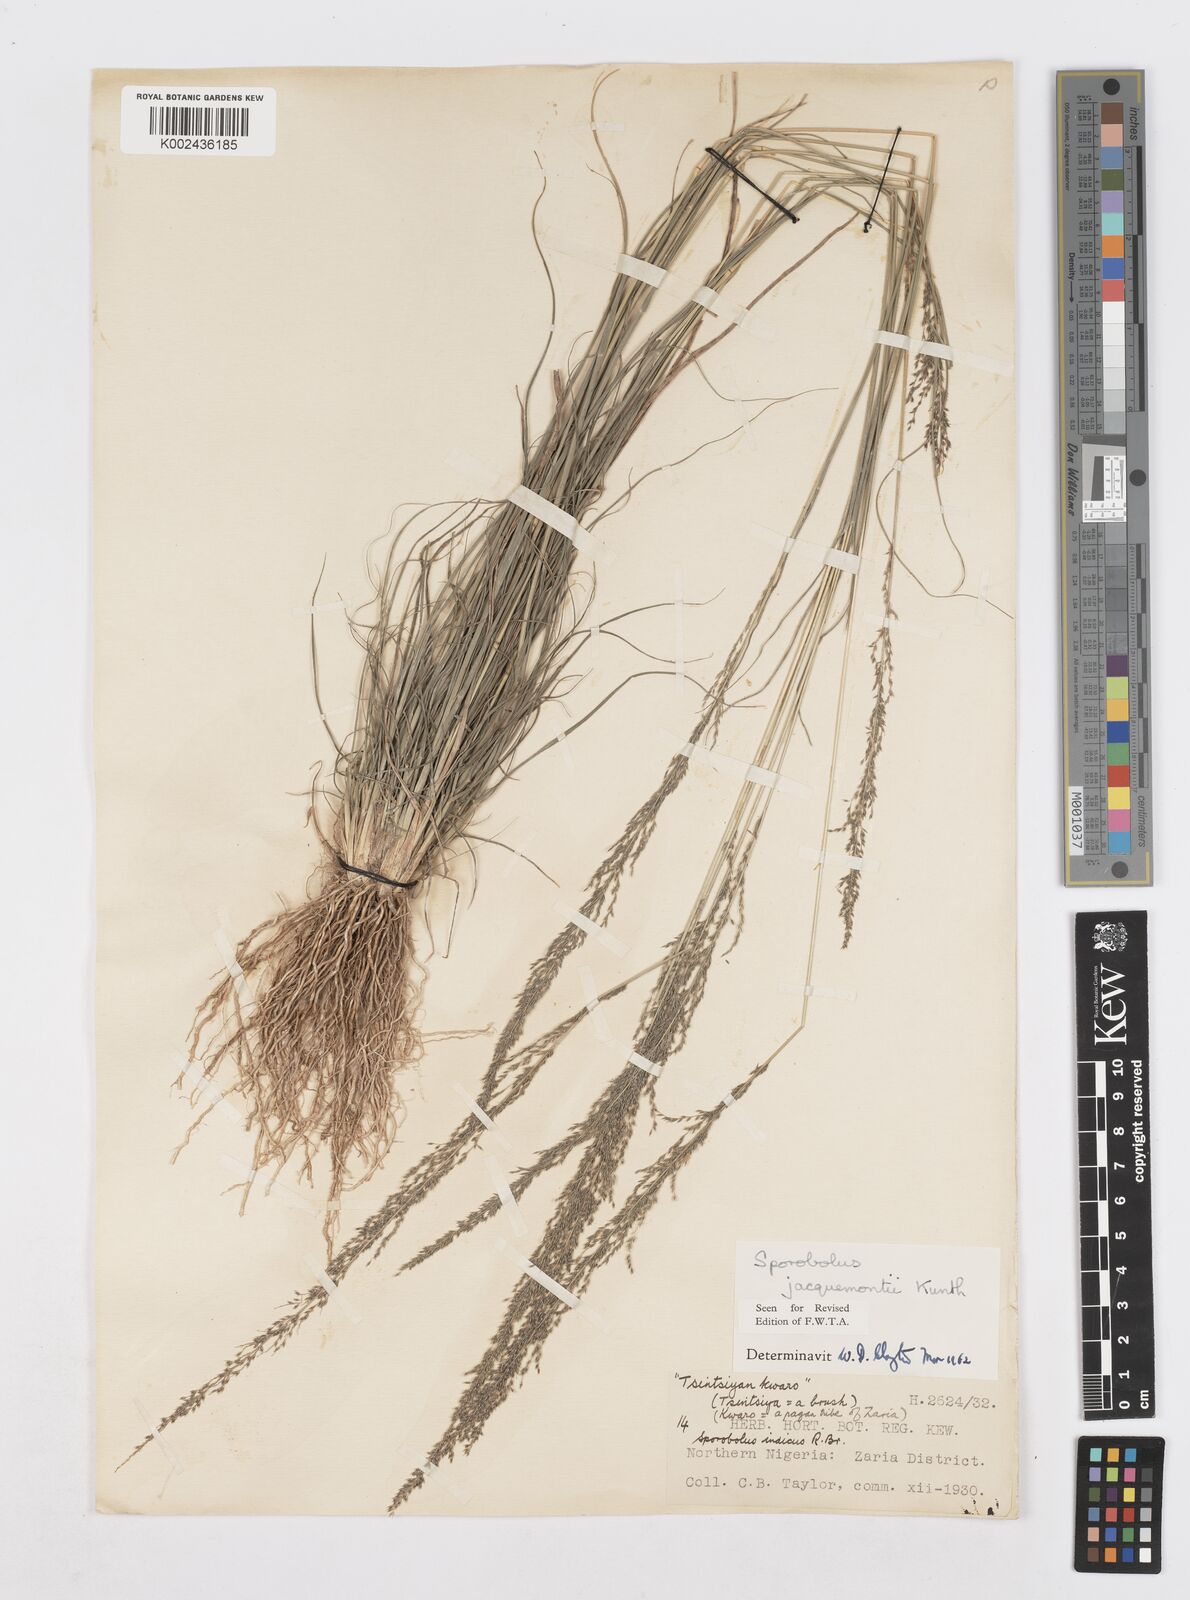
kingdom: Plantae
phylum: Tracheophyta
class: Liliopsida
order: Poales
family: Poaceae
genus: Sporobolus
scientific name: Sporobolus pyramidalis
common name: West indian dropseed
